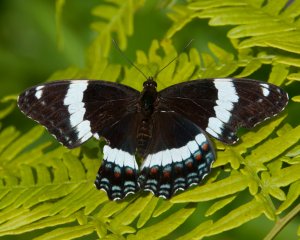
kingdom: Animalia
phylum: Arthropoda
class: Insecta
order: Lepidoptera
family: Nymphalidae
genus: Limenitis
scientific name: Limenitis arthemis
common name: Red-spotted Admiral
